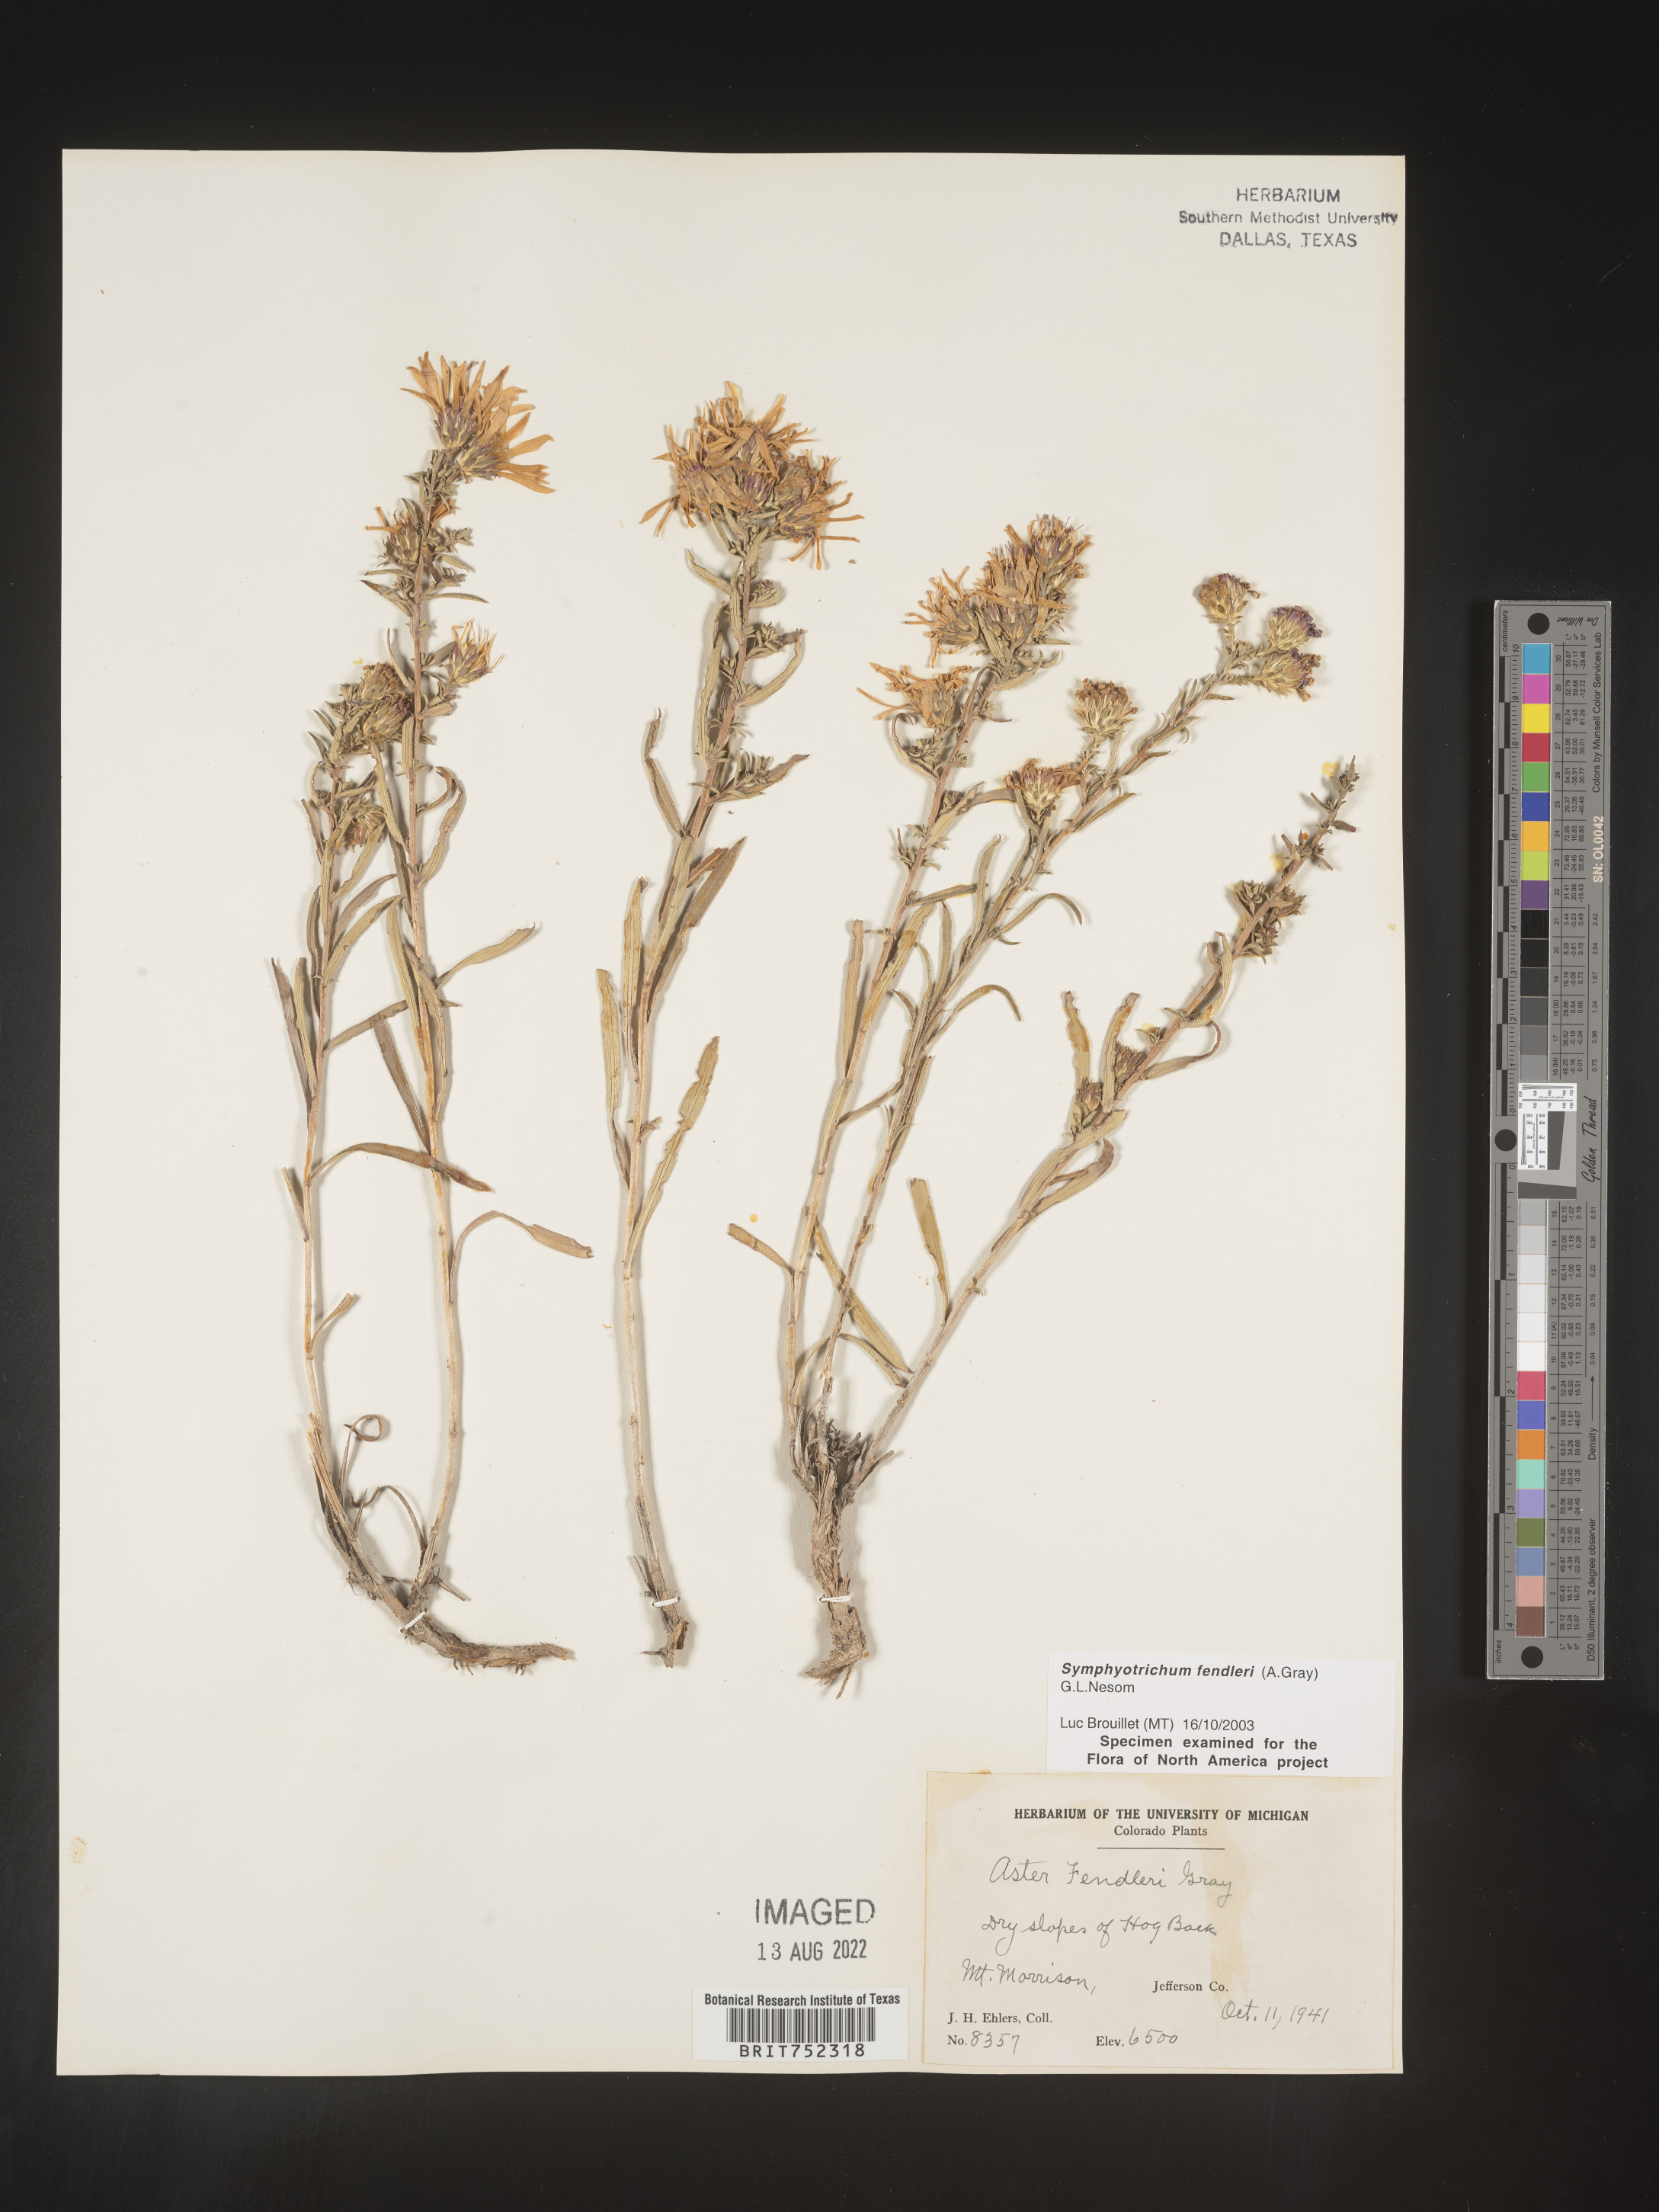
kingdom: Plantae
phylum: Tracheophyta
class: Magnoliopsida
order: Asterales
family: Asteraceae
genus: Symphyotrichum
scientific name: Symphyotrichum fendleri
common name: Fendler's aster
